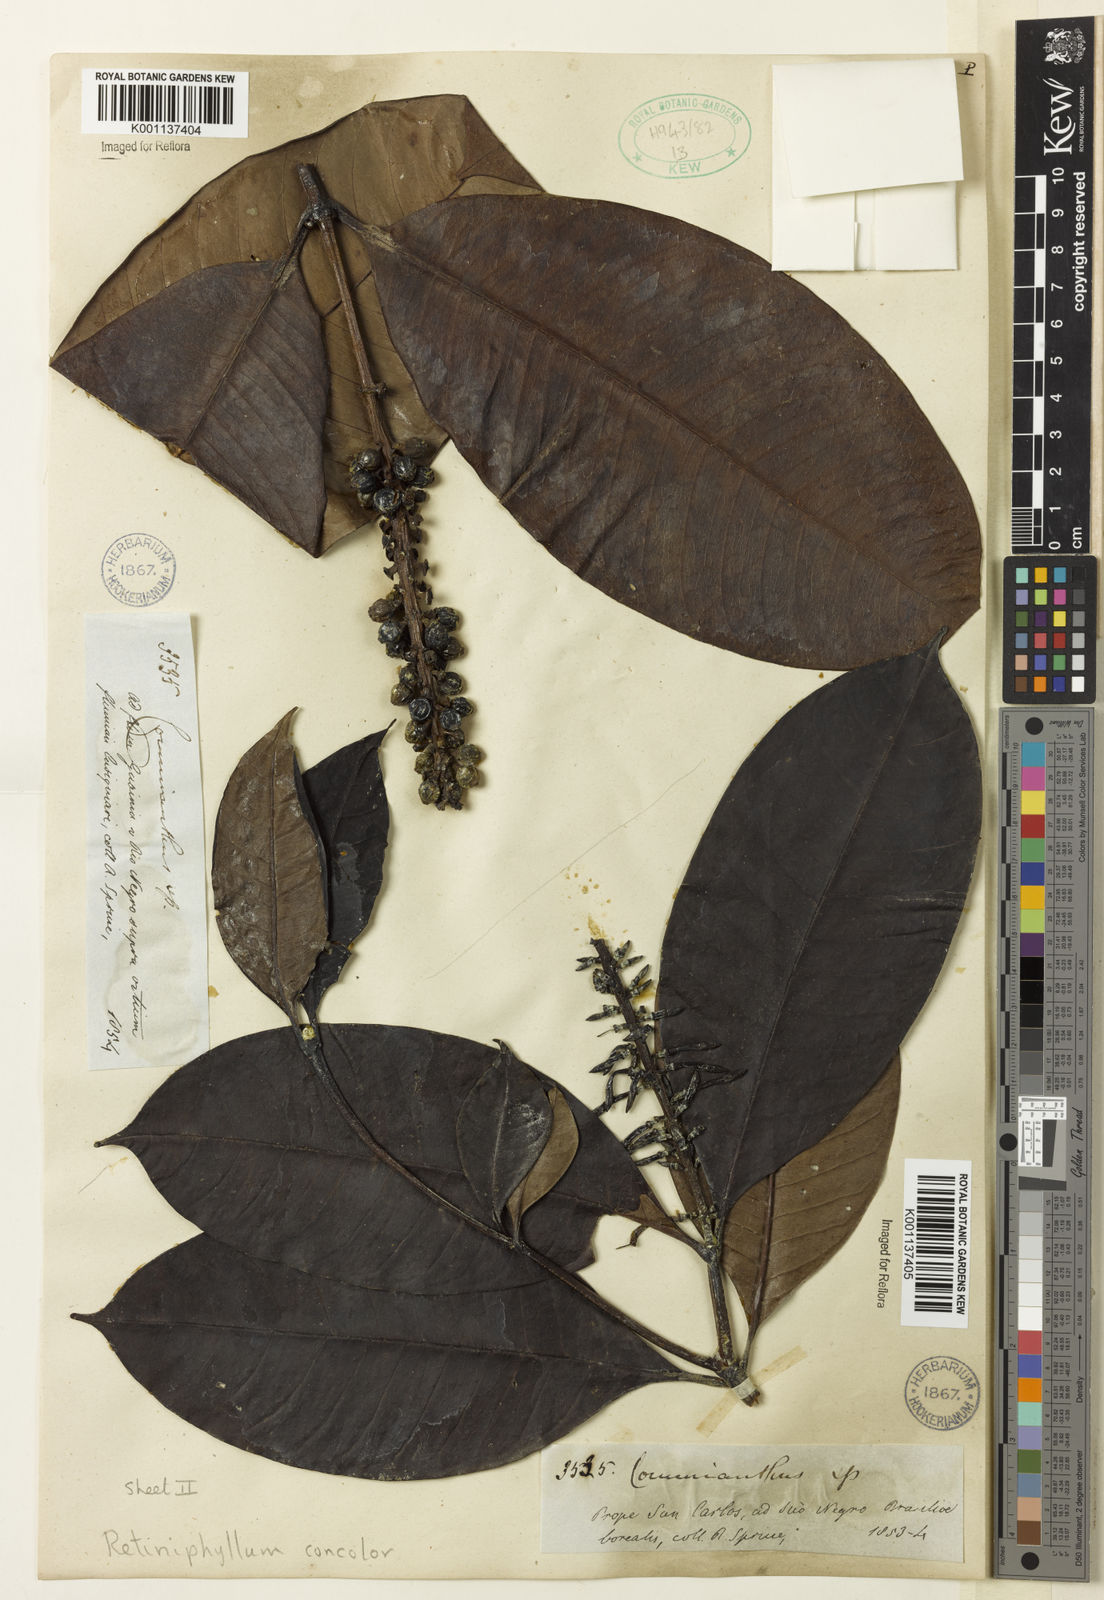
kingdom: Plantae
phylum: Tracheophyta
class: Magnoliopsida
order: Gentianales
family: Rubiaceae
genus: Retiniphyllum
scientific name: Retiniphyllum
